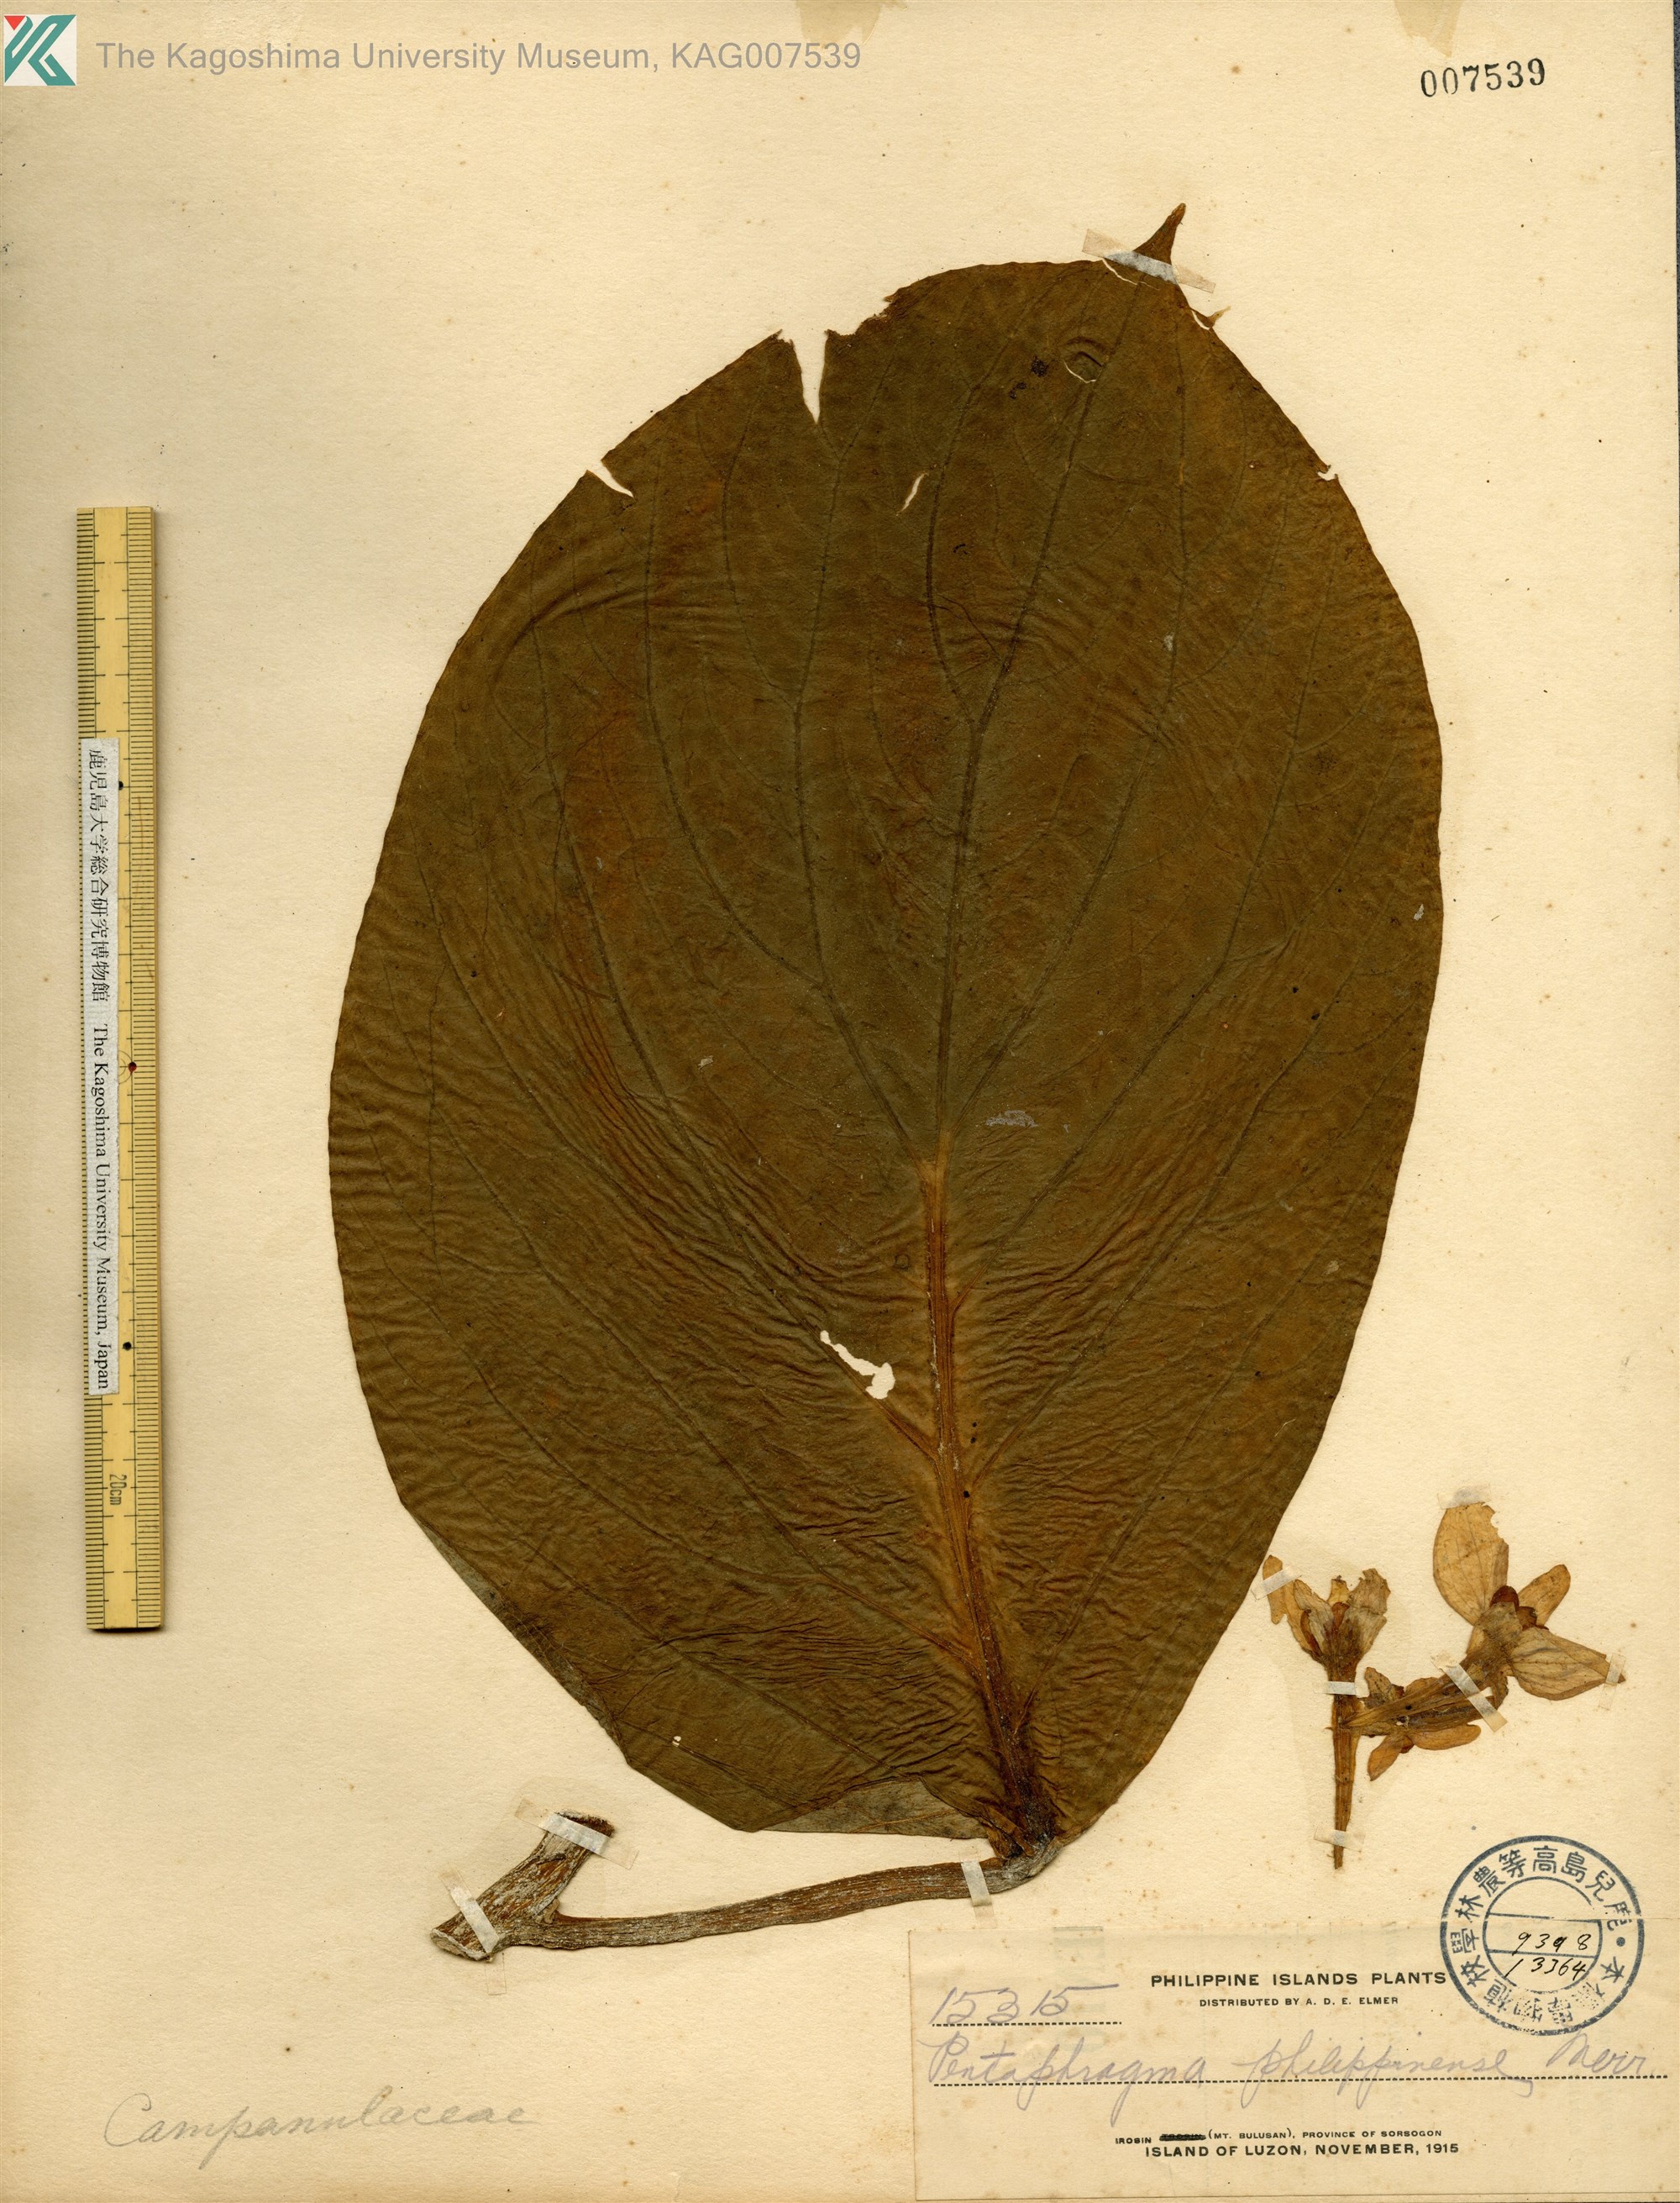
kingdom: Plantae
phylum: Tracheophyta
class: Magnoliopsida
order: Asterales
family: Pentaphragmataceae
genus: Pentaphragma
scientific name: Pentaphragma grandiflorum
